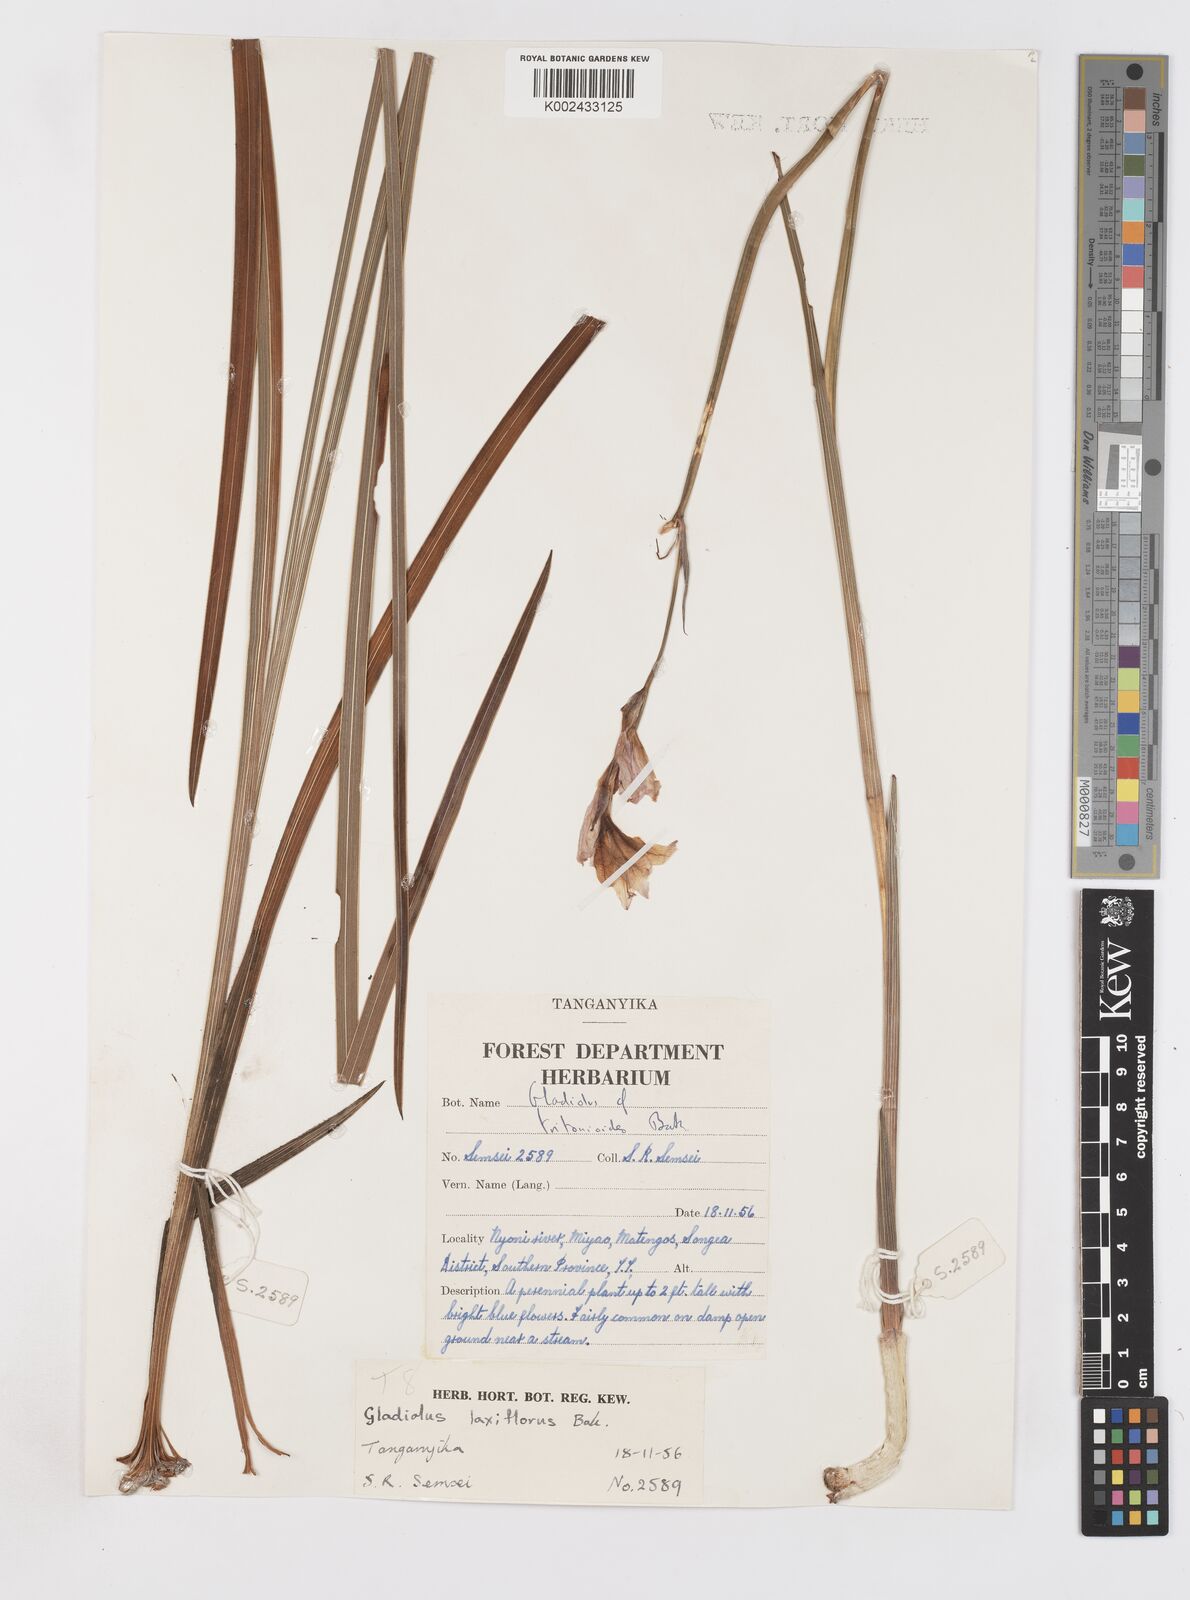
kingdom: Plantae
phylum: Tracheophyta
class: Liliopsida
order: Asparagales
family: Iridaceae
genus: Gladiolus
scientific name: Gladiolus laxiflorus
